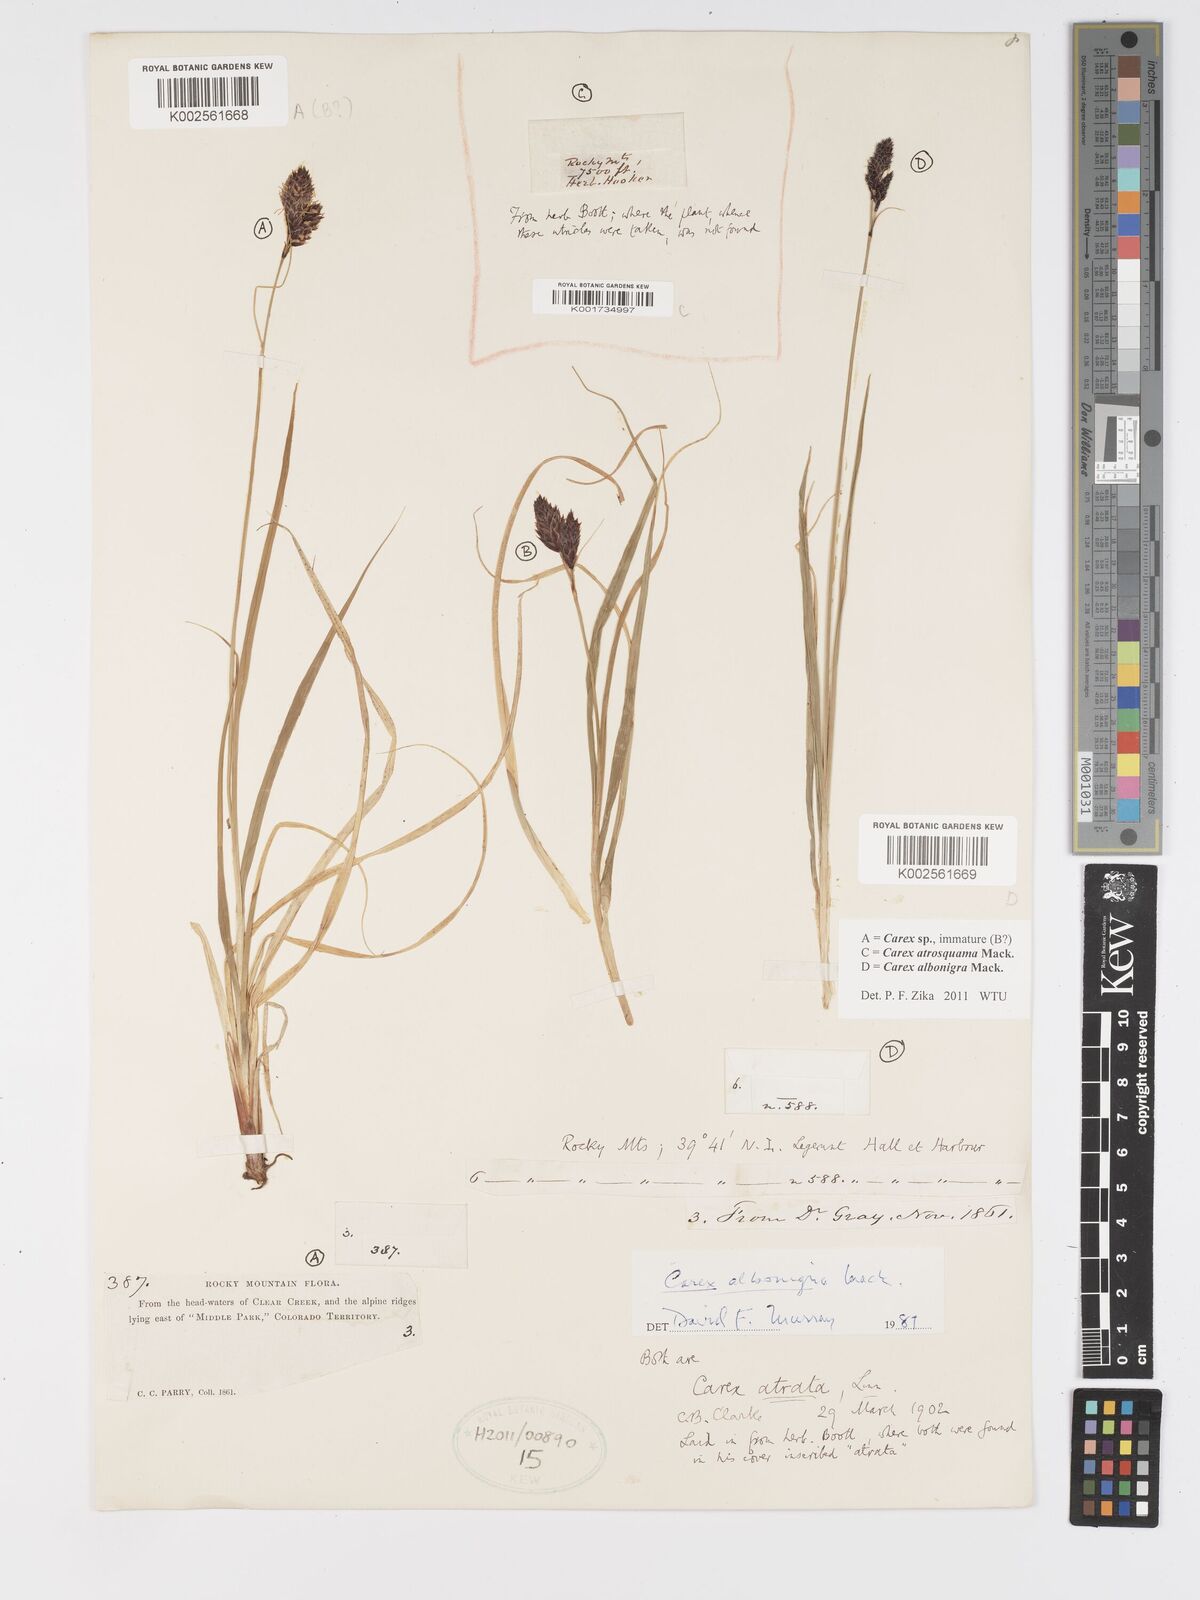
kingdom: Plantae
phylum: Tracheophyta
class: Liliopsida
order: Poales
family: Cyperaceae
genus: Carex
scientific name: Carex albonigra
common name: Black-and-white sedge
